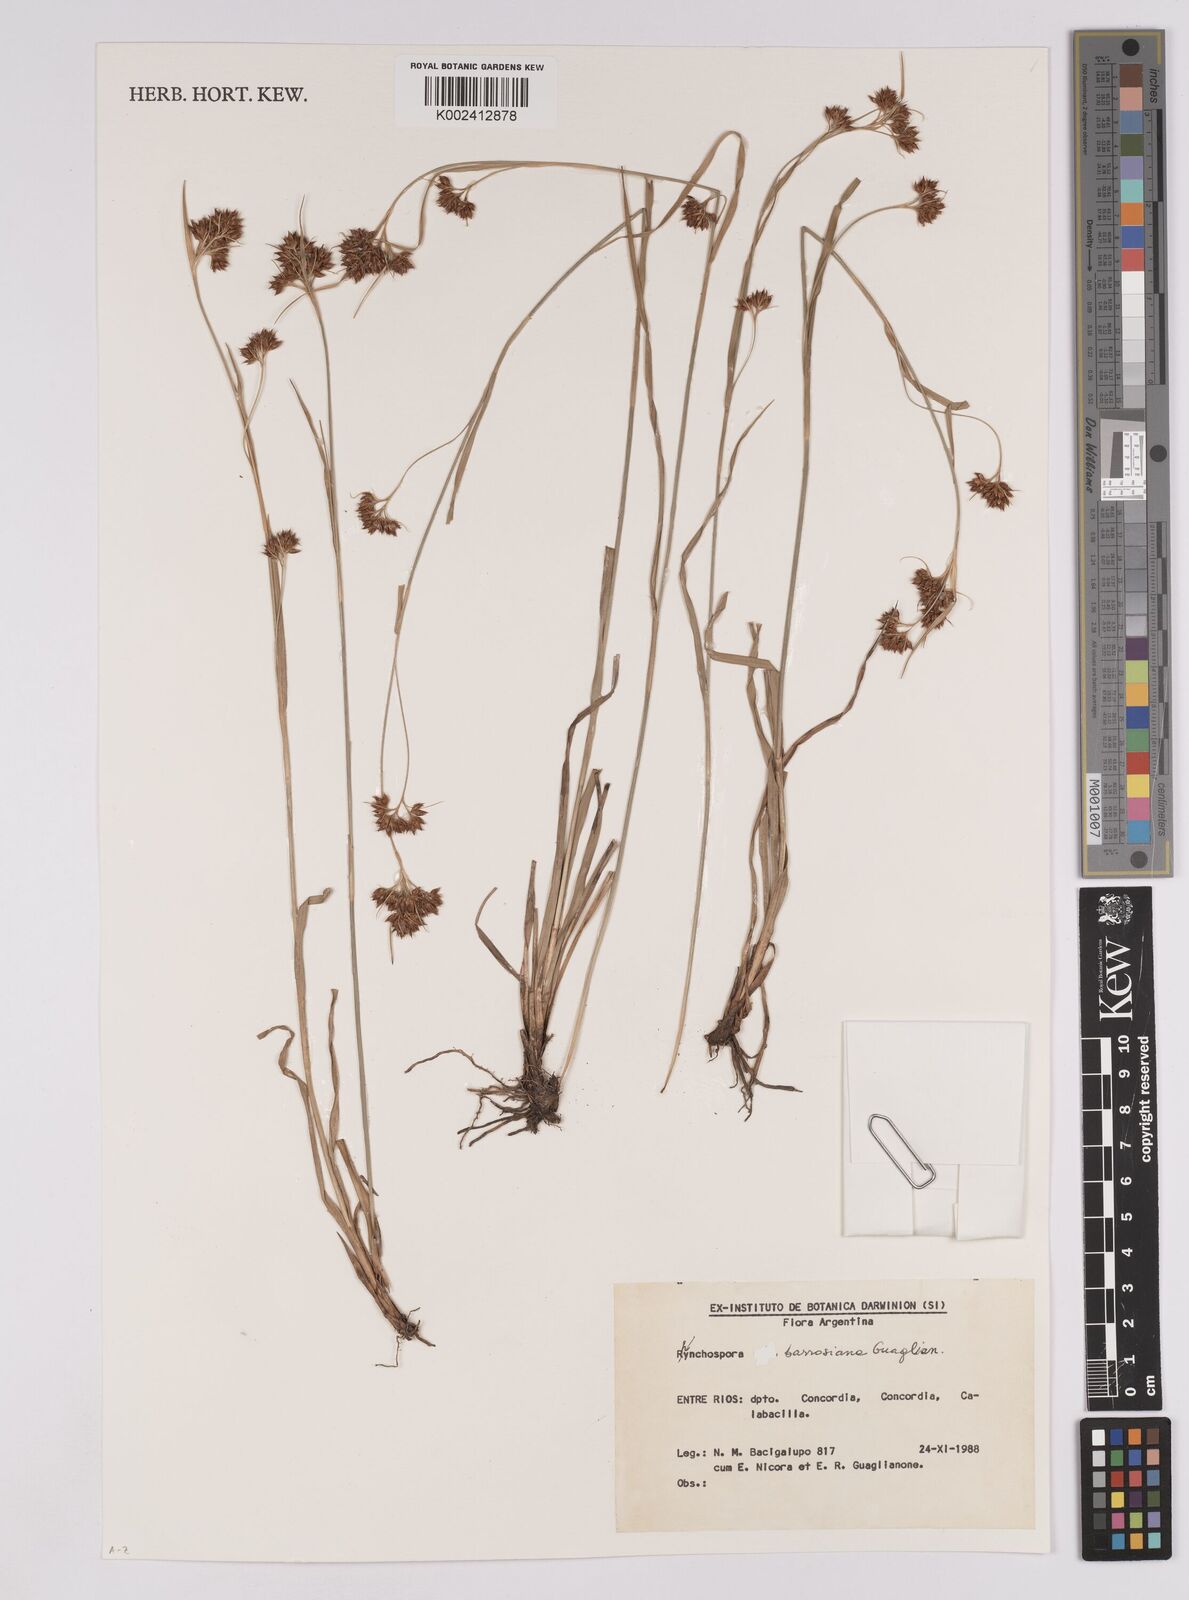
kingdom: Plantae
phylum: Tracheophyta
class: Liliopsida
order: Poales
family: Cyperaceae
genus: Rhynchospora
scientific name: Rhynchospora barrosiana
